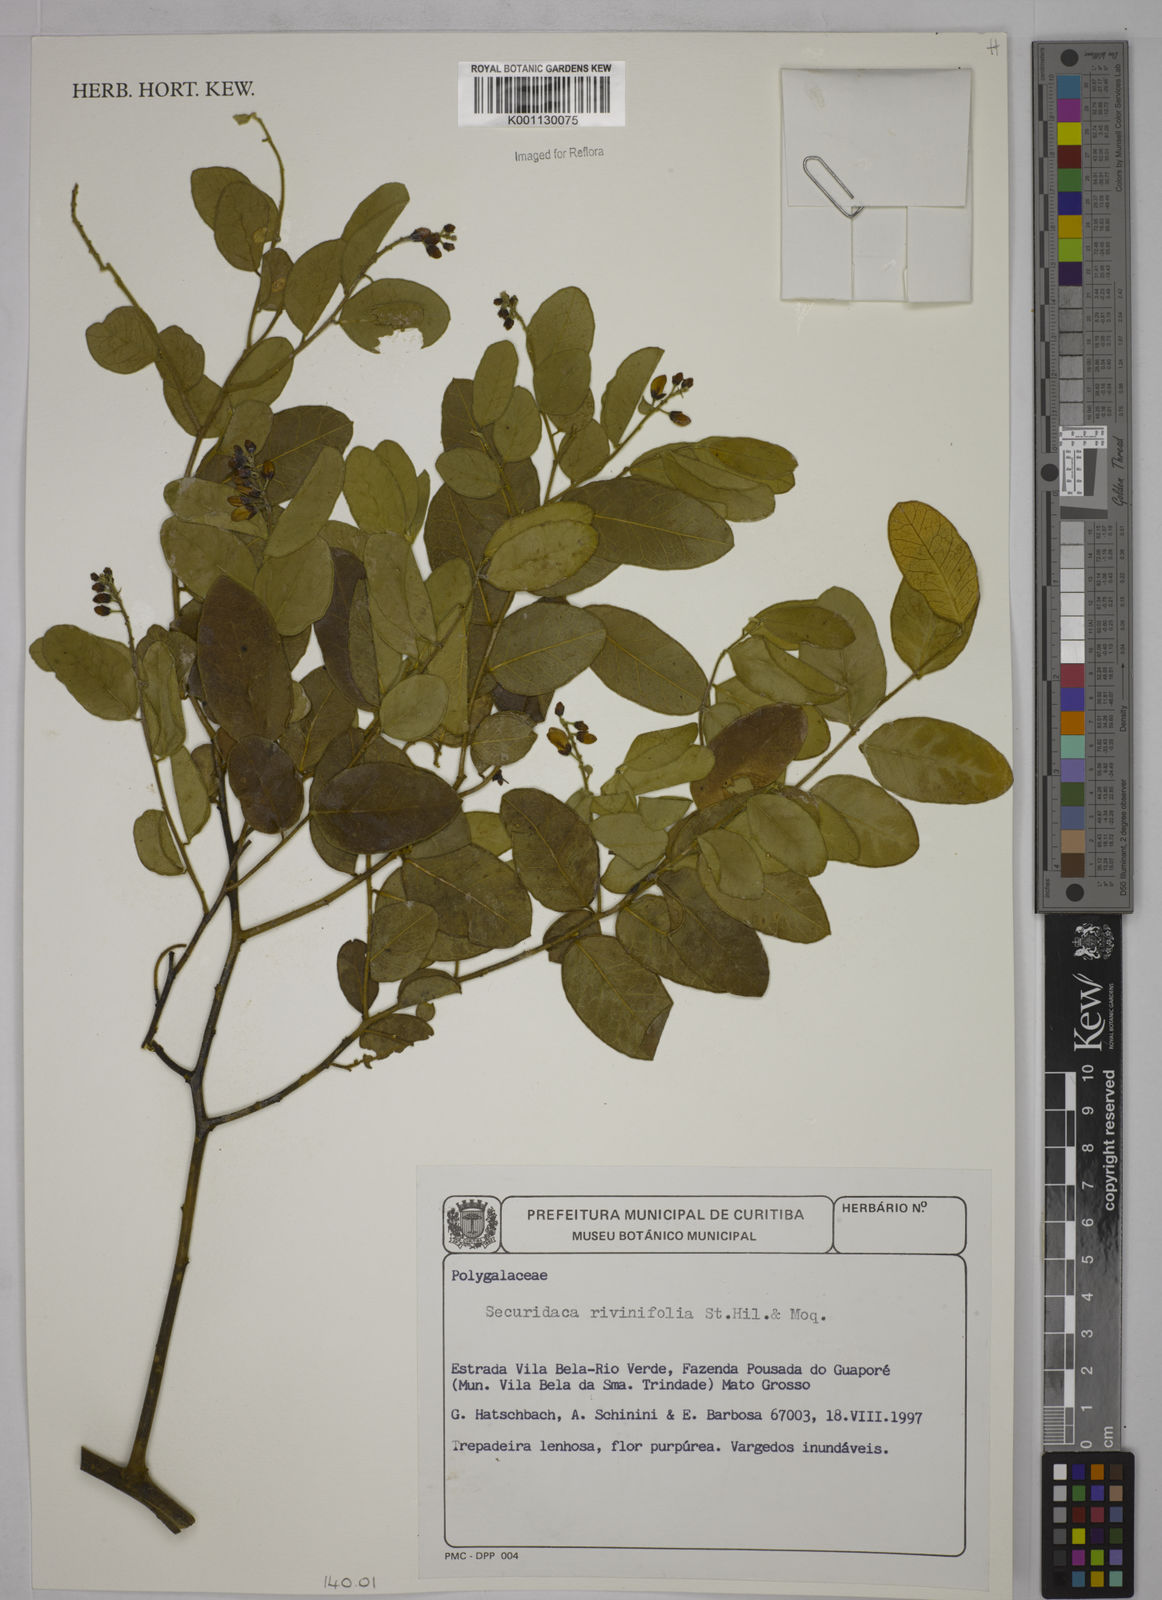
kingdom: Plantae
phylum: Tracheophyta
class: Magnoliopsida
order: Fabales
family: Polygalaceae
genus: Securidaca
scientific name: Securidaca rivinifolia
